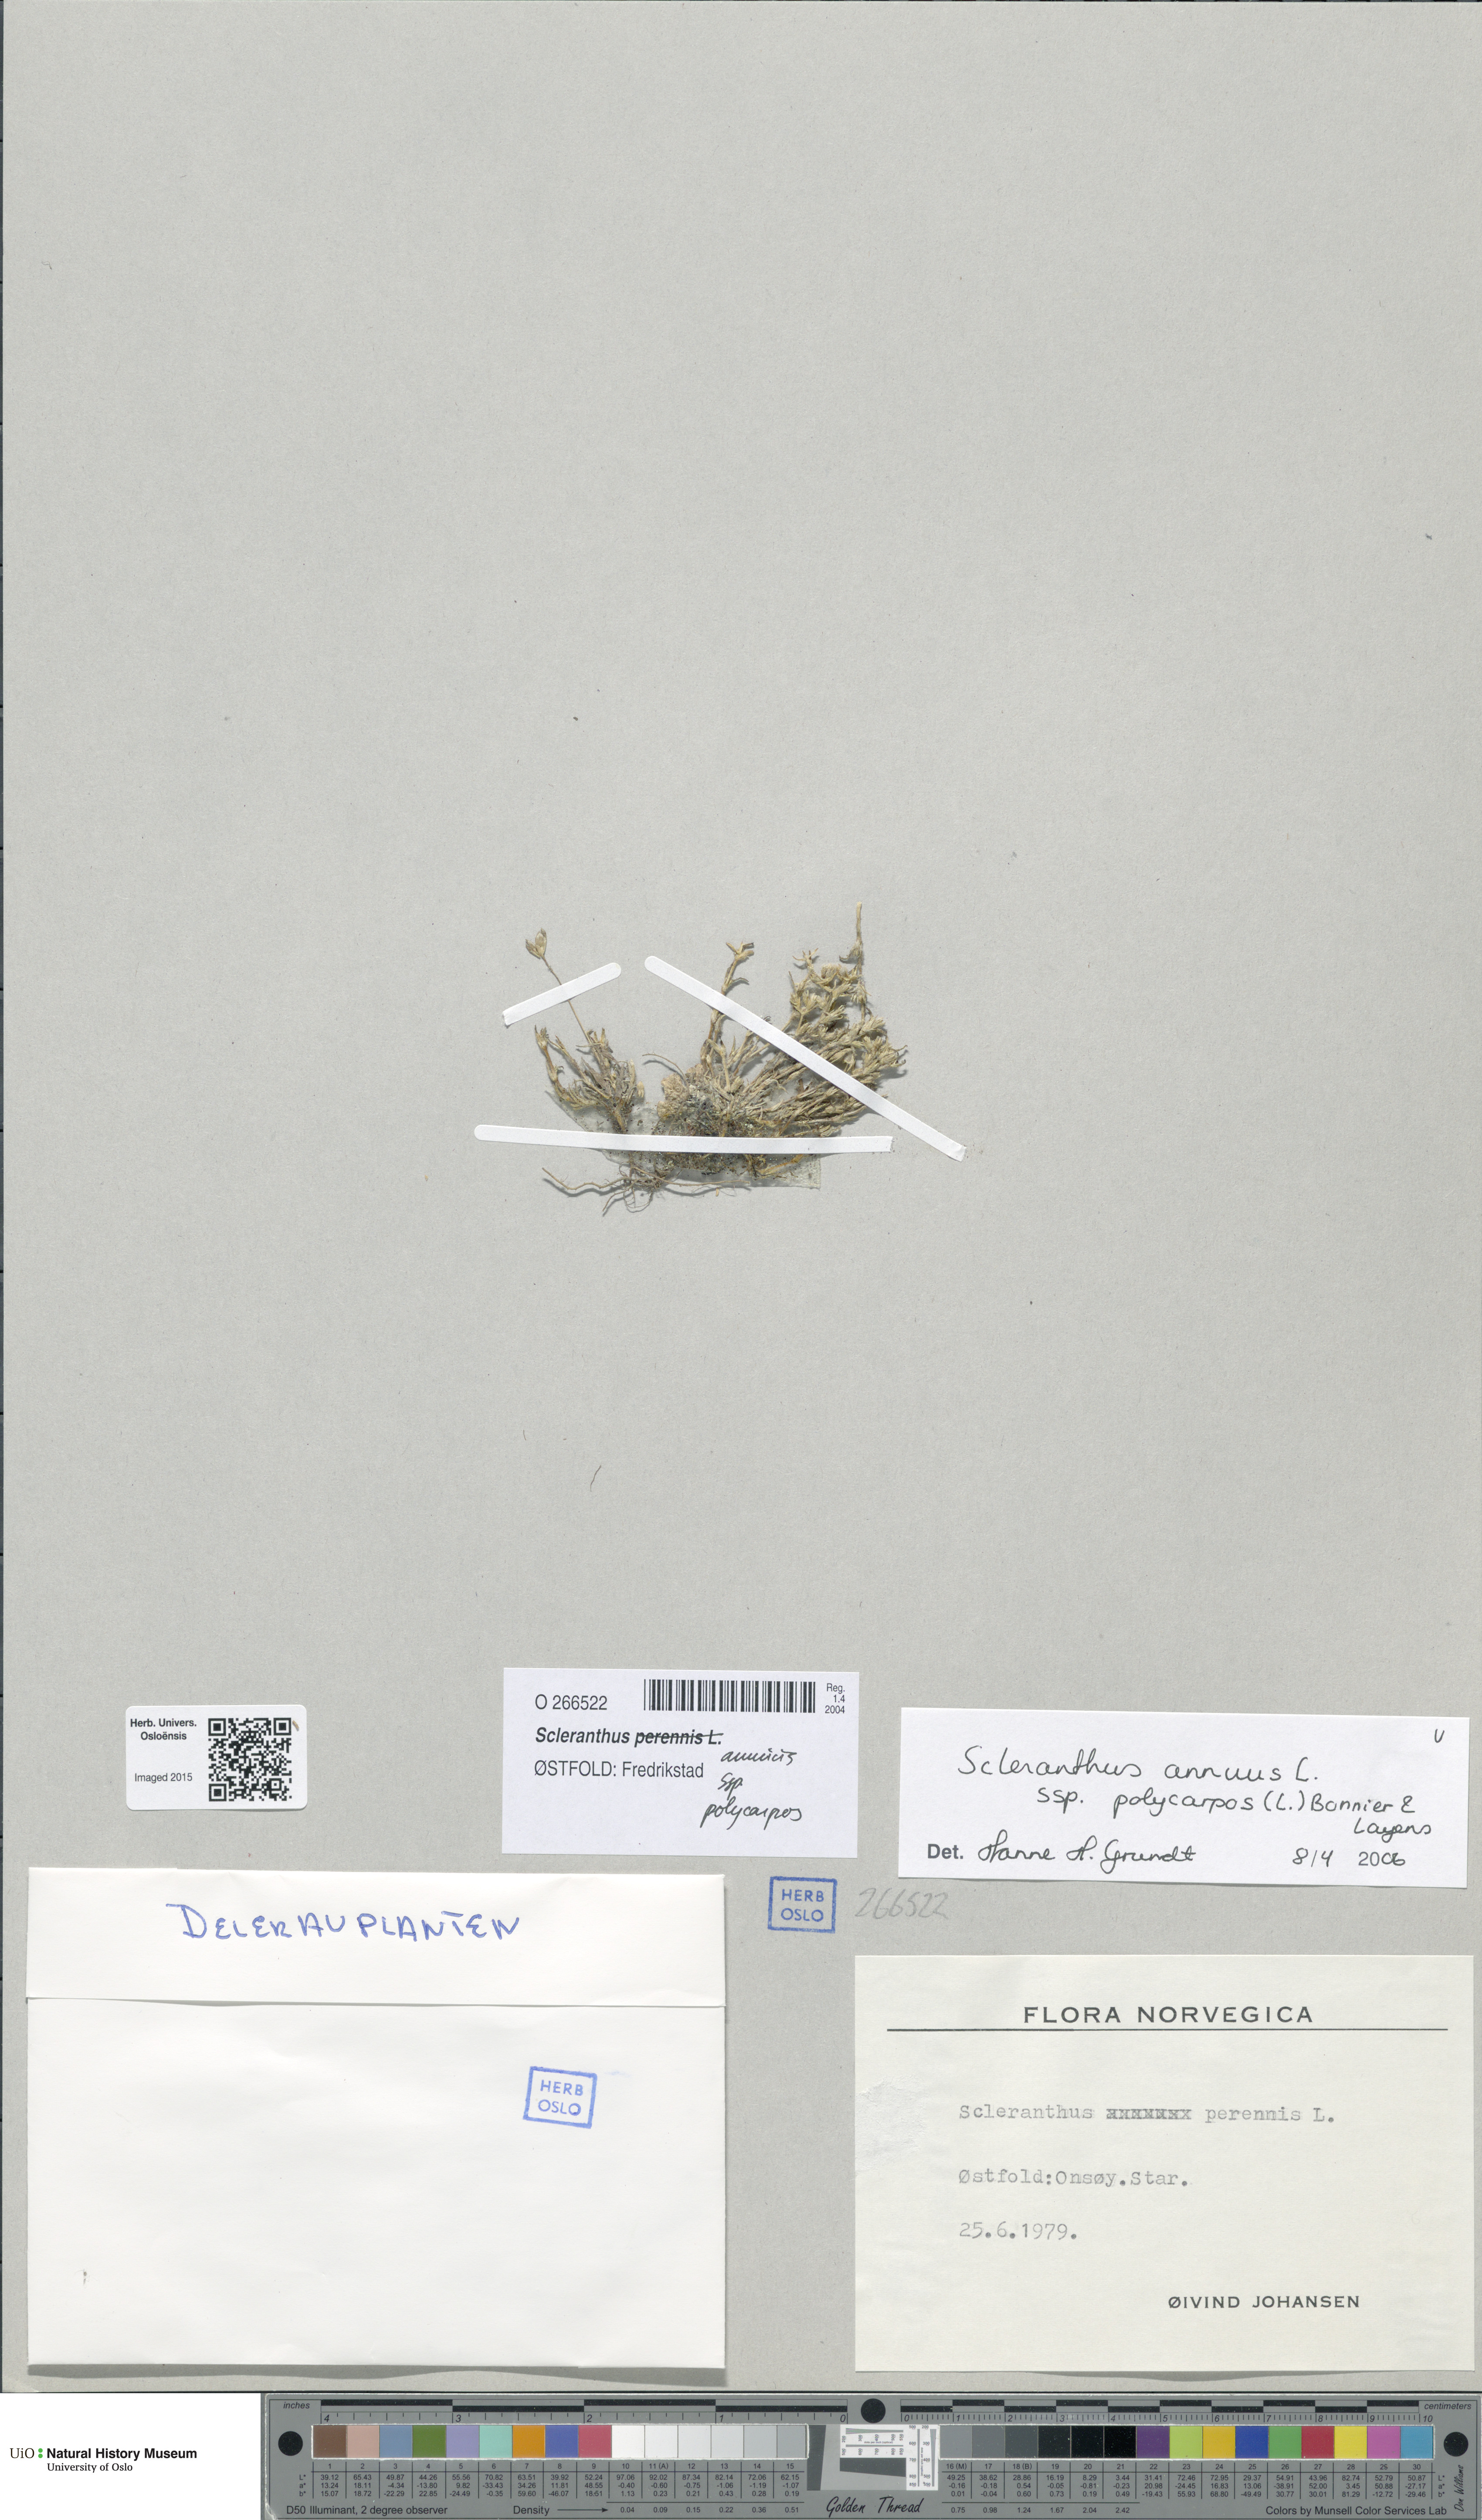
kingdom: Plantae
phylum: Tracheophyta
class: Magnoliopsida
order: Caryophyllales
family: Caryophyllaceae
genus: Scleranthus
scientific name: Scleranthus annuus
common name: Annual knawel
